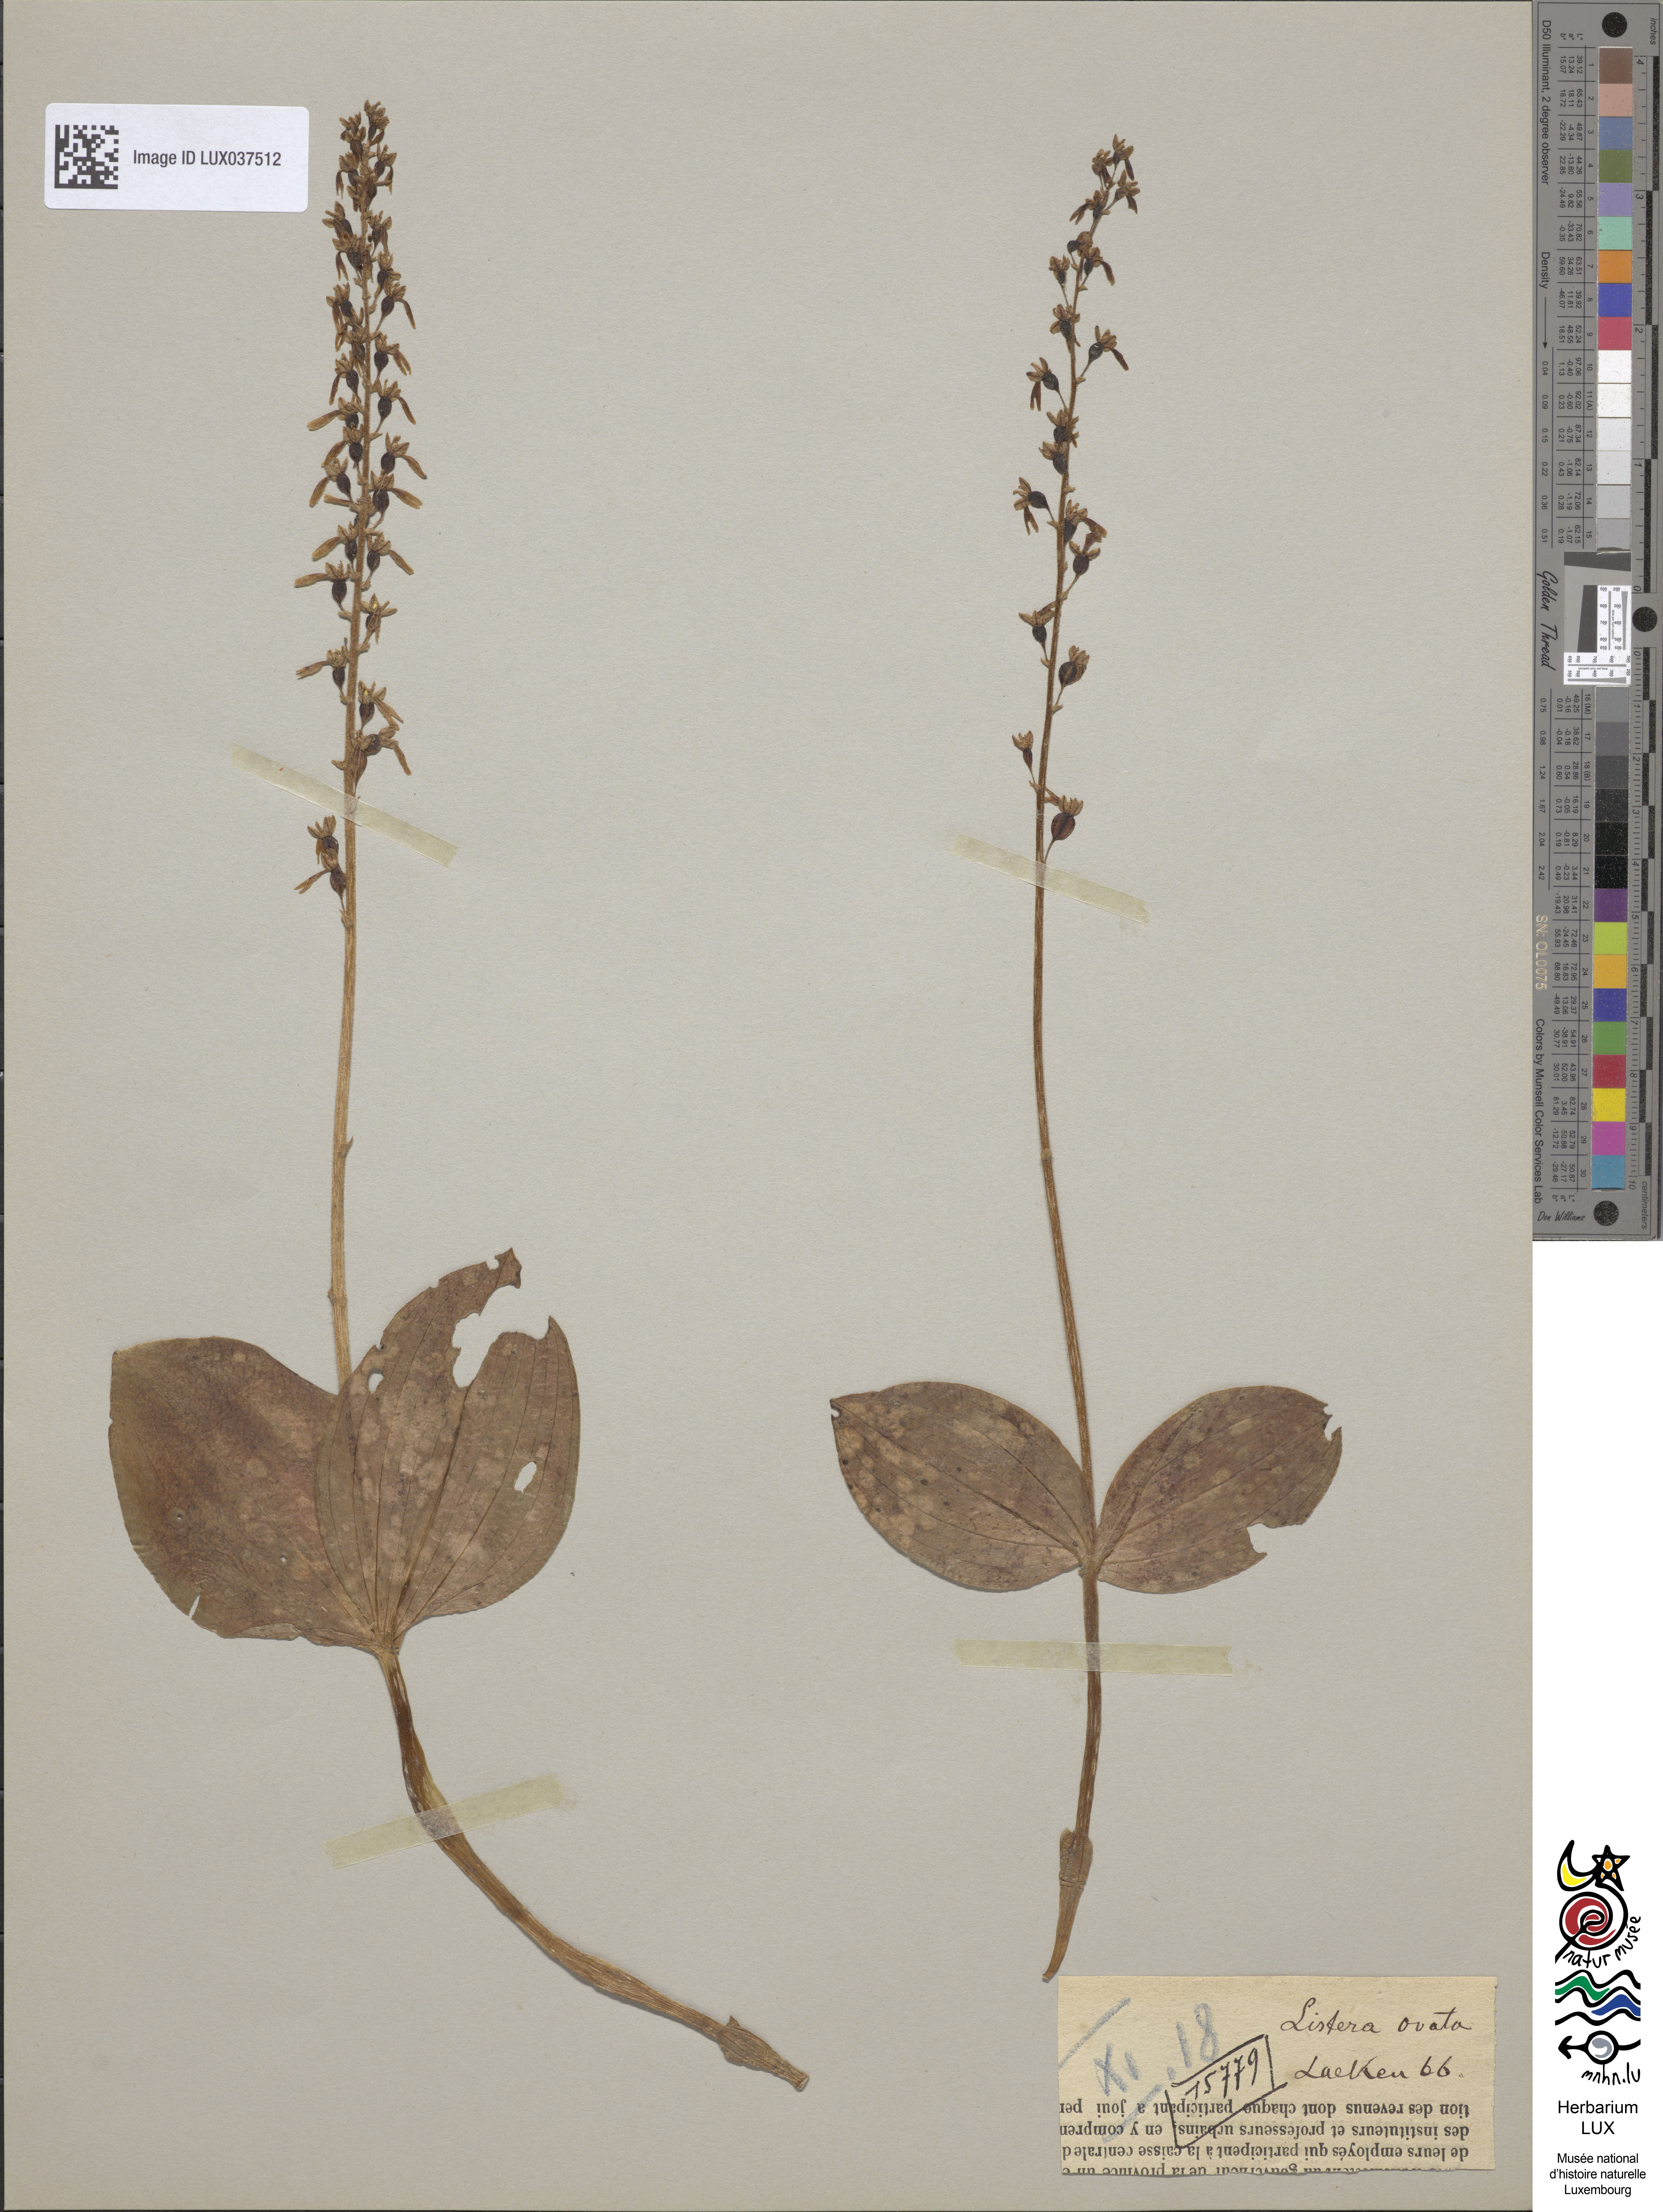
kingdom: Plantae
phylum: Tracheophyta
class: Liliopsida
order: Asparagales
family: Orchidaceae
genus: Neottia
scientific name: Neottia ovata
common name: Common twayblade
